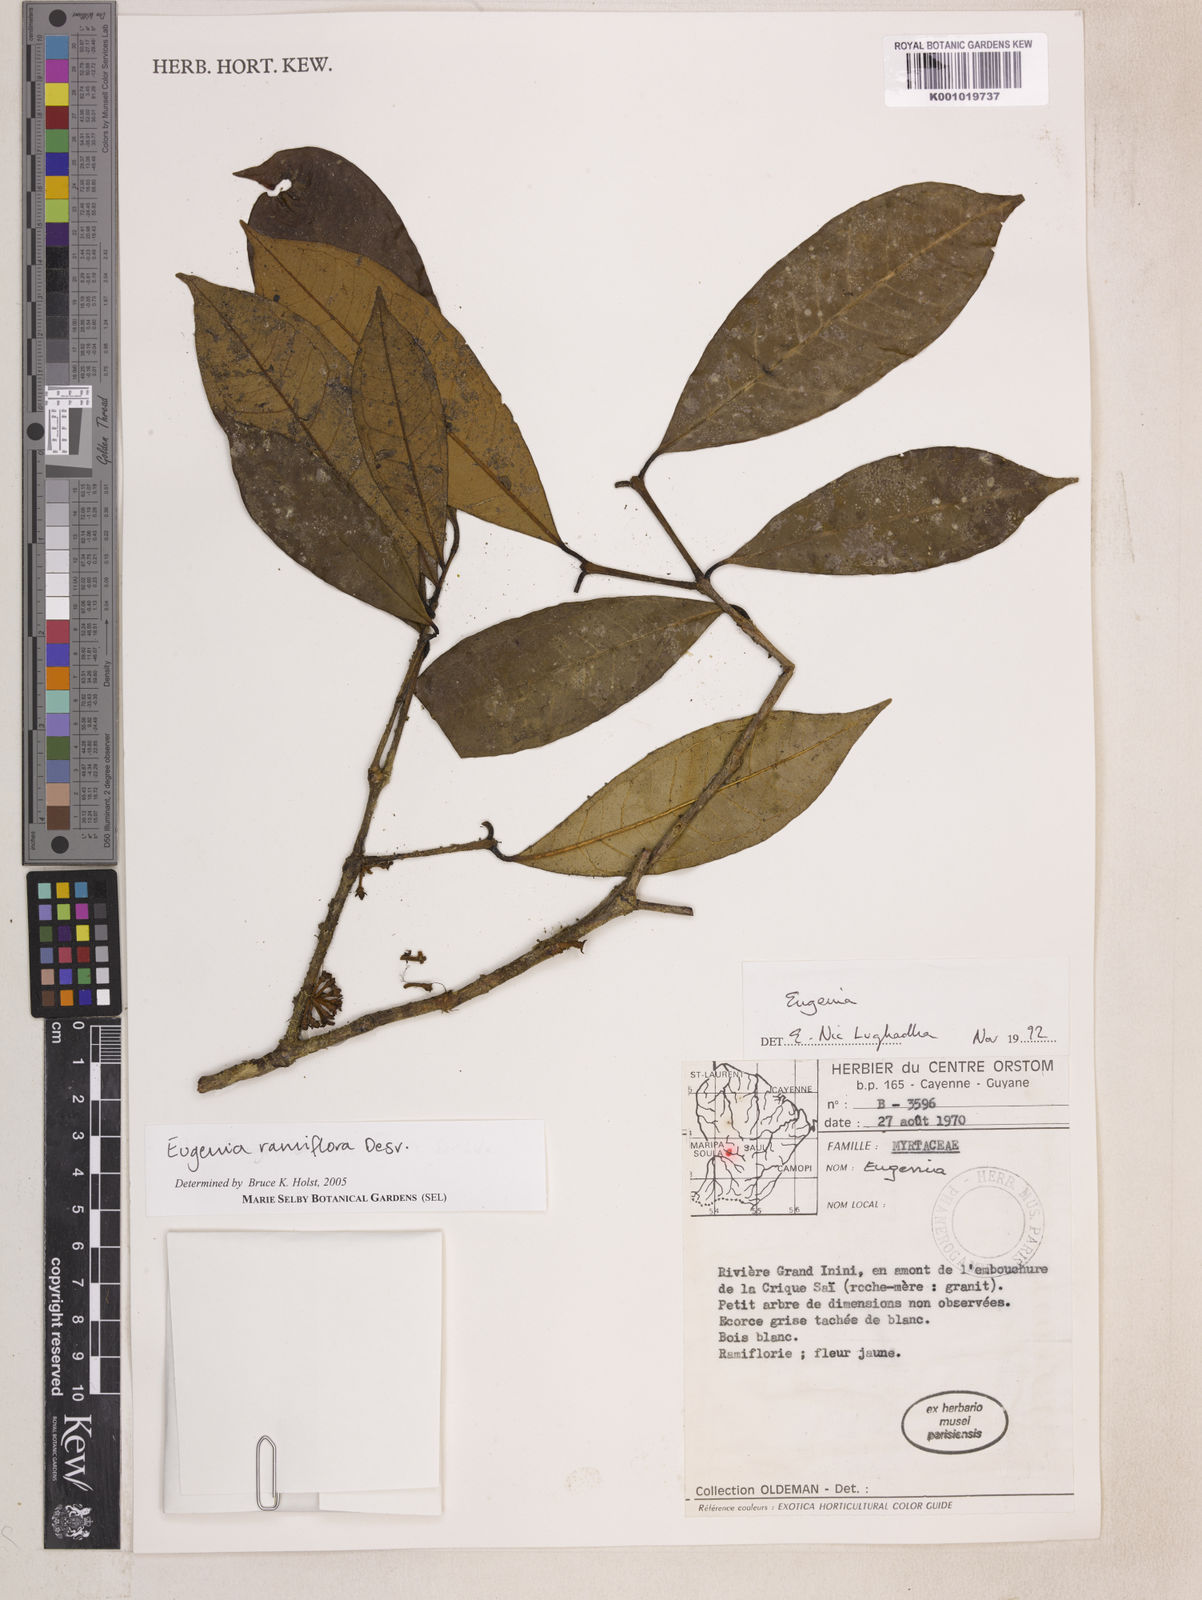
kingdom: Plantae
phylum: Tracheophyta
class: Magnoliopsida
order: Myrtales
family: Myrtaceae
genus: Eugenia
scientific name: Eugenia ramiflora
